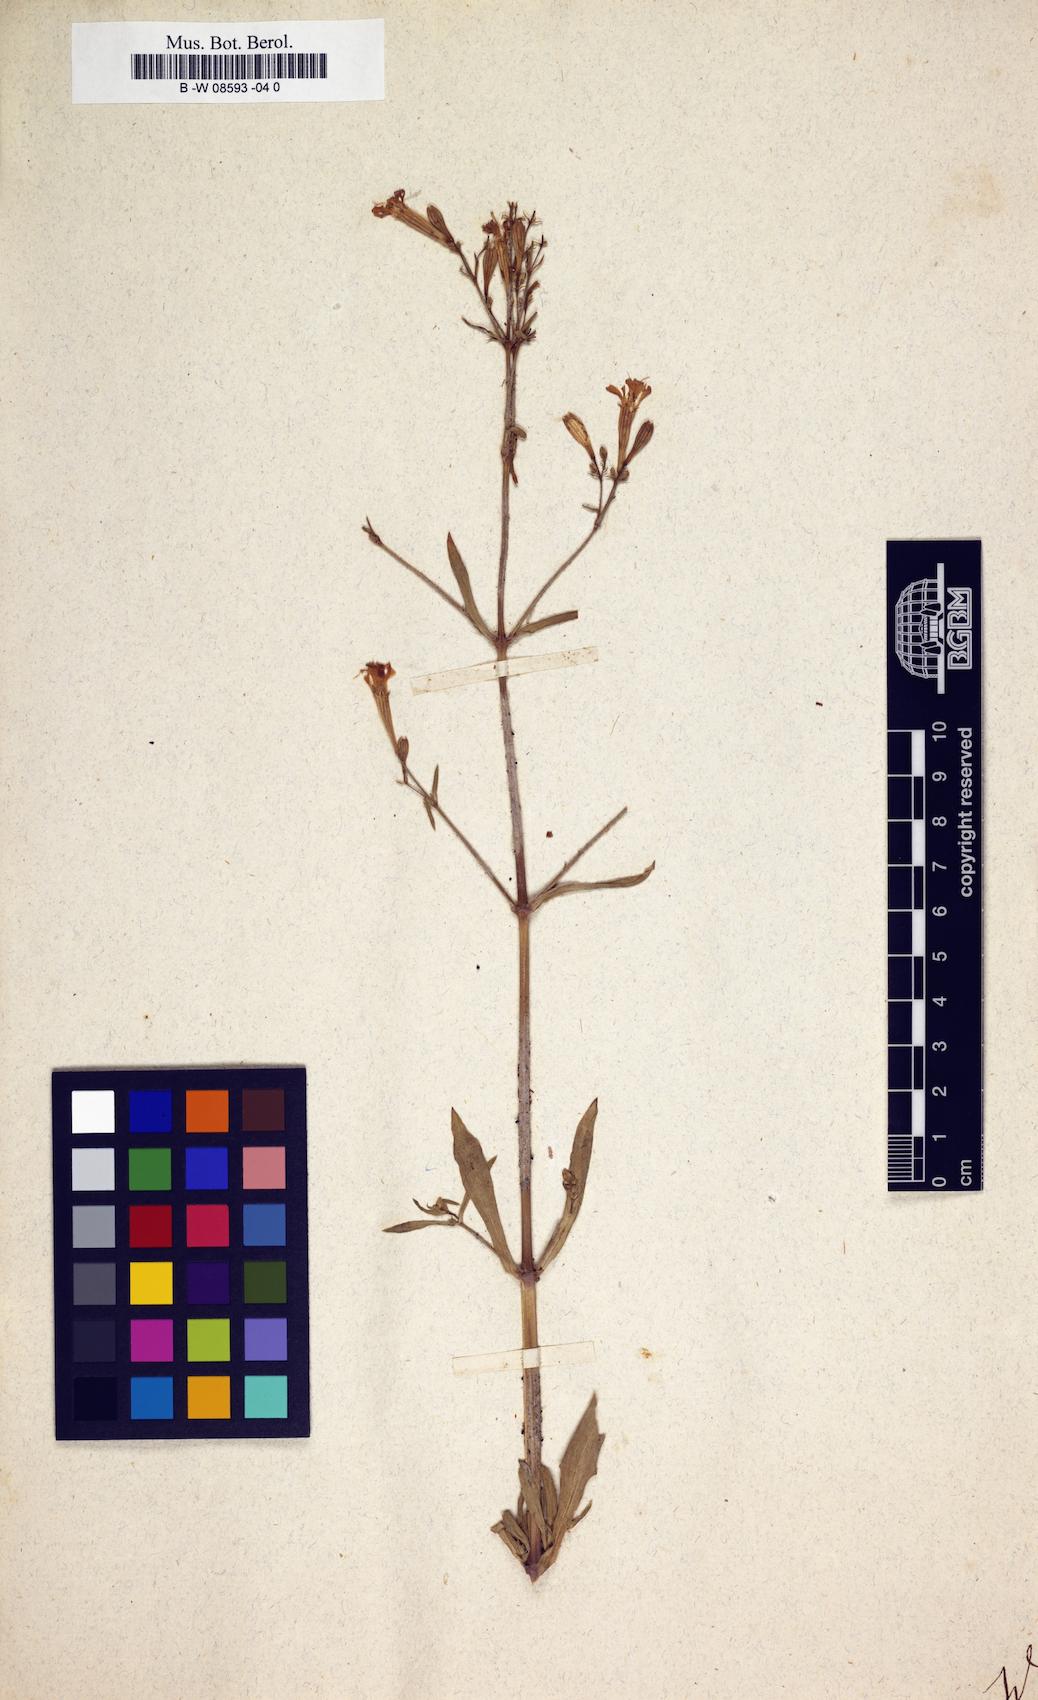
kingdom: Animalia
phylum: Cnidaria
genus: Cucubalus
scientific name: Cucubalus
